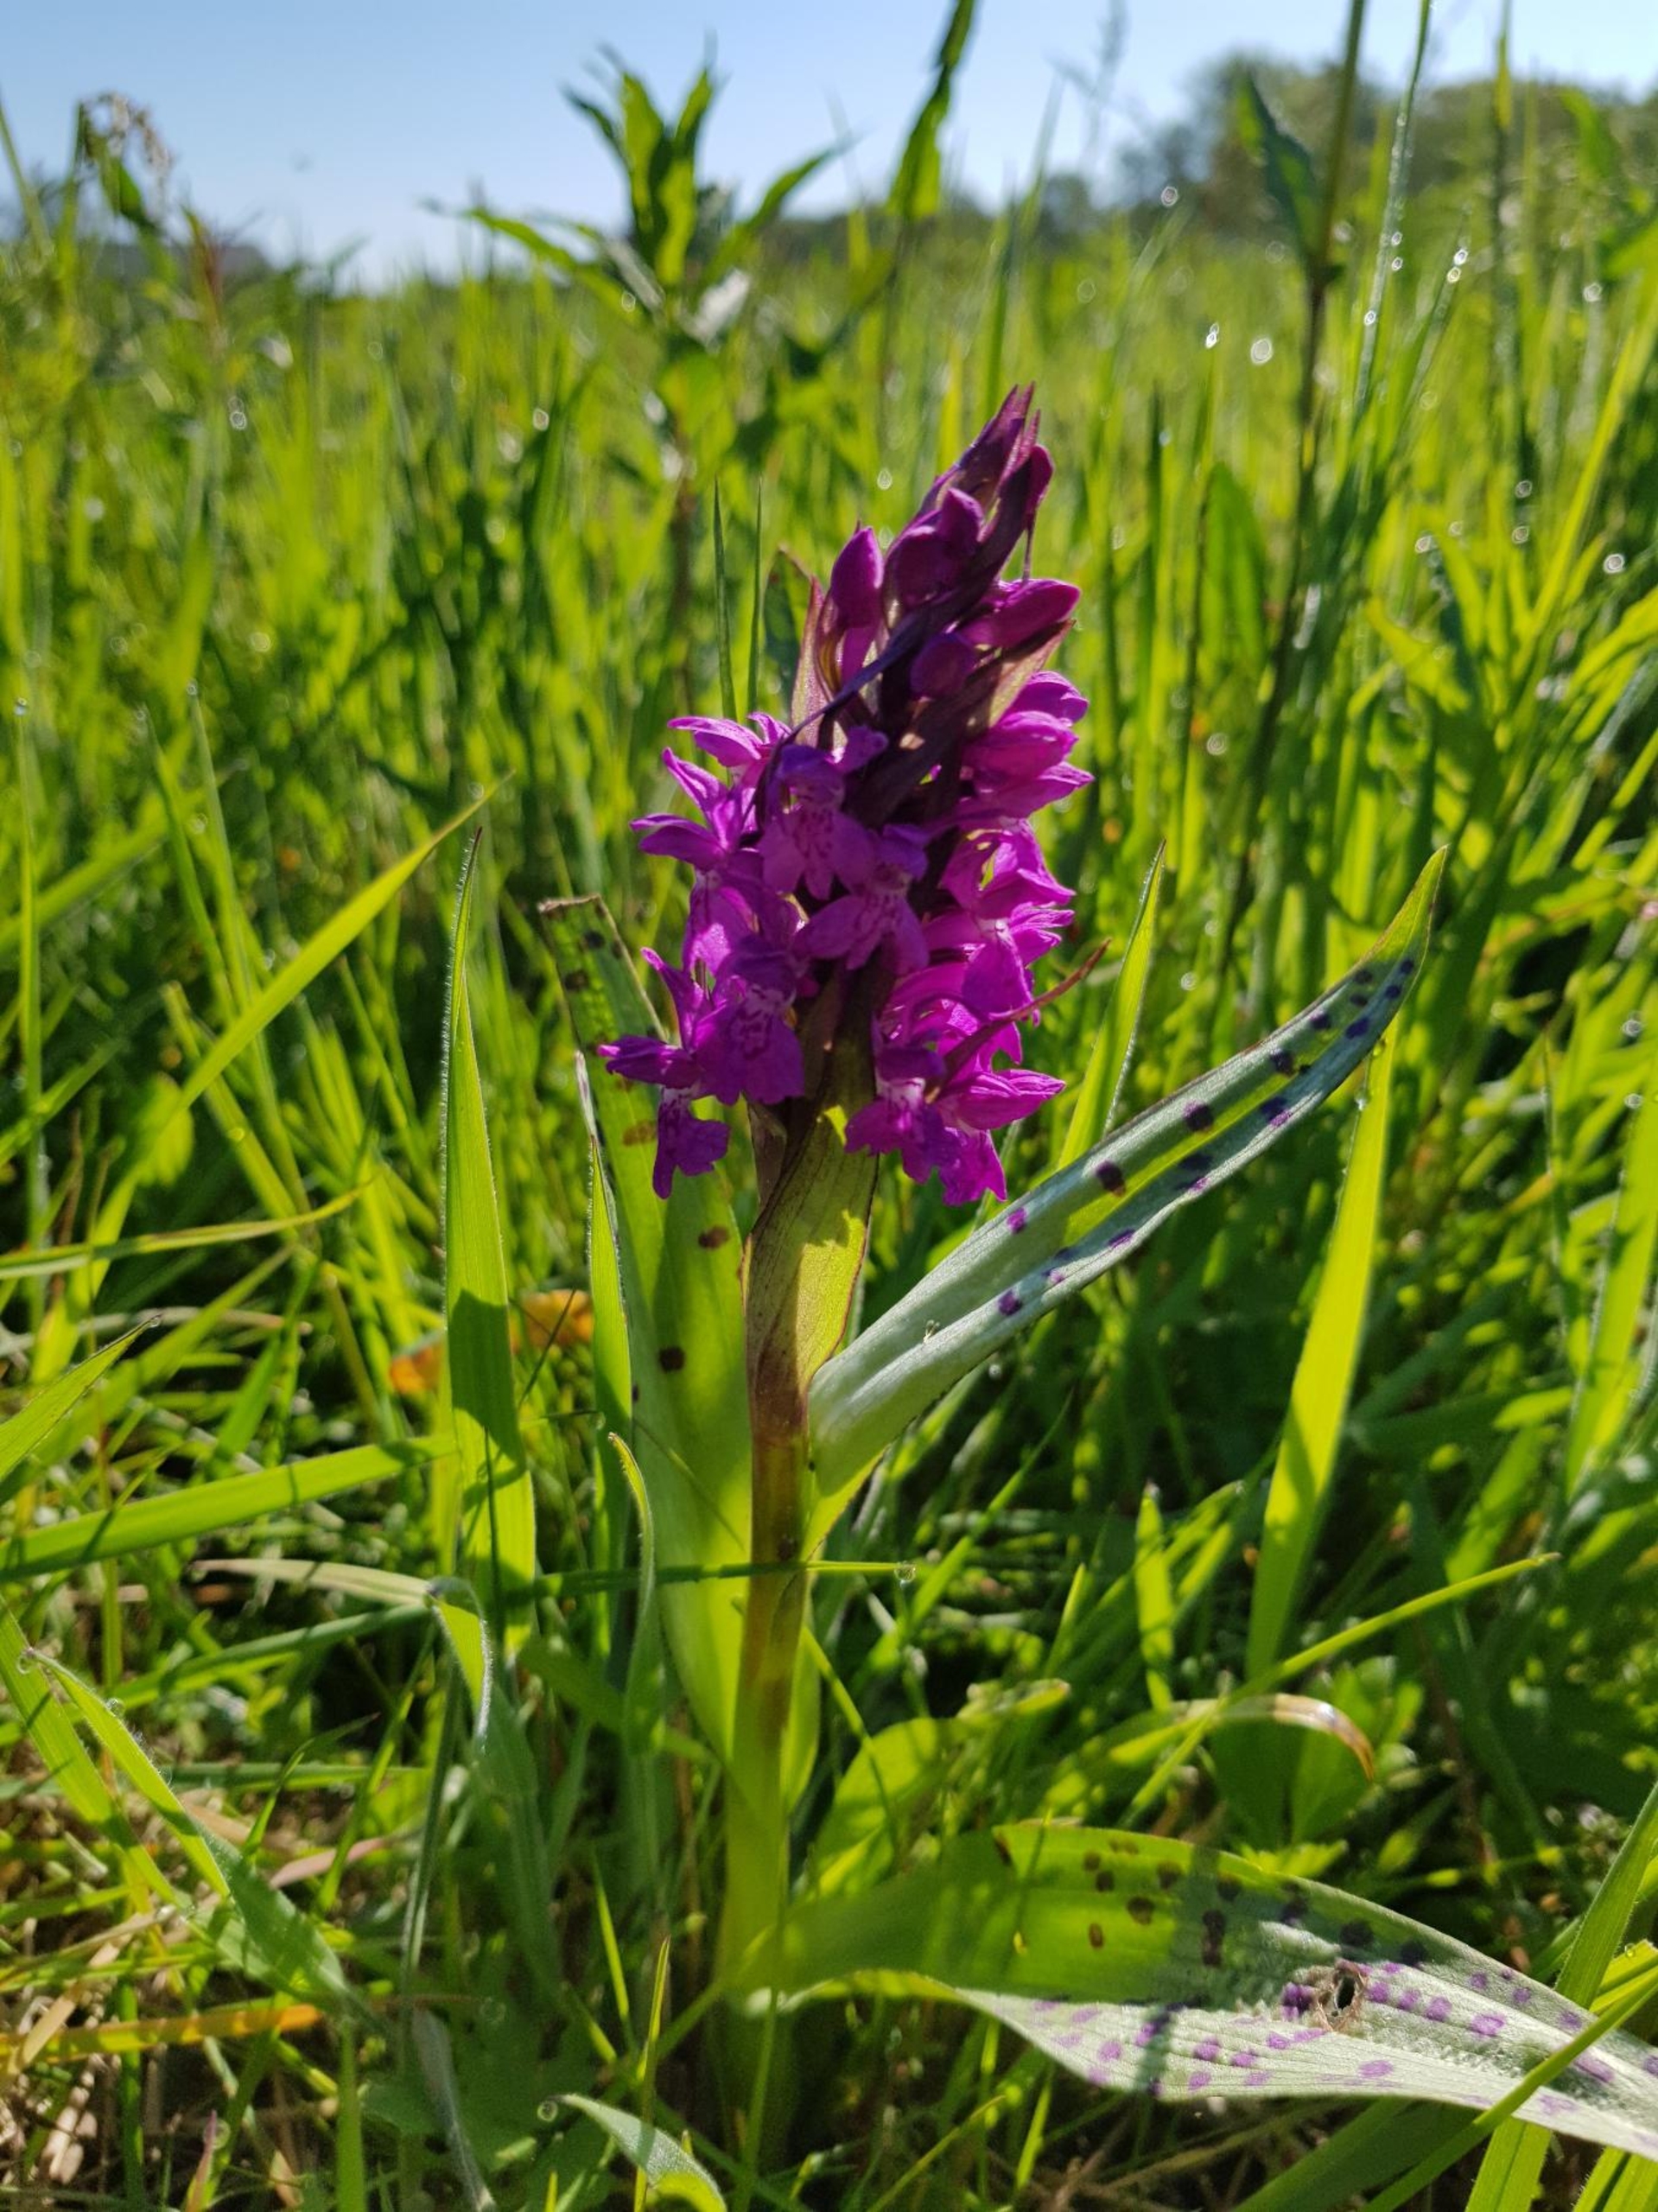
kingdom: Plantae
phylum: Tracheophyta
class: Liliopsida
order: Asparagales
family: Orchidaceae
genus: Dactylorhiza
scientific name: Dactylorhiza majalis
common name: Maj-gøgeurt
